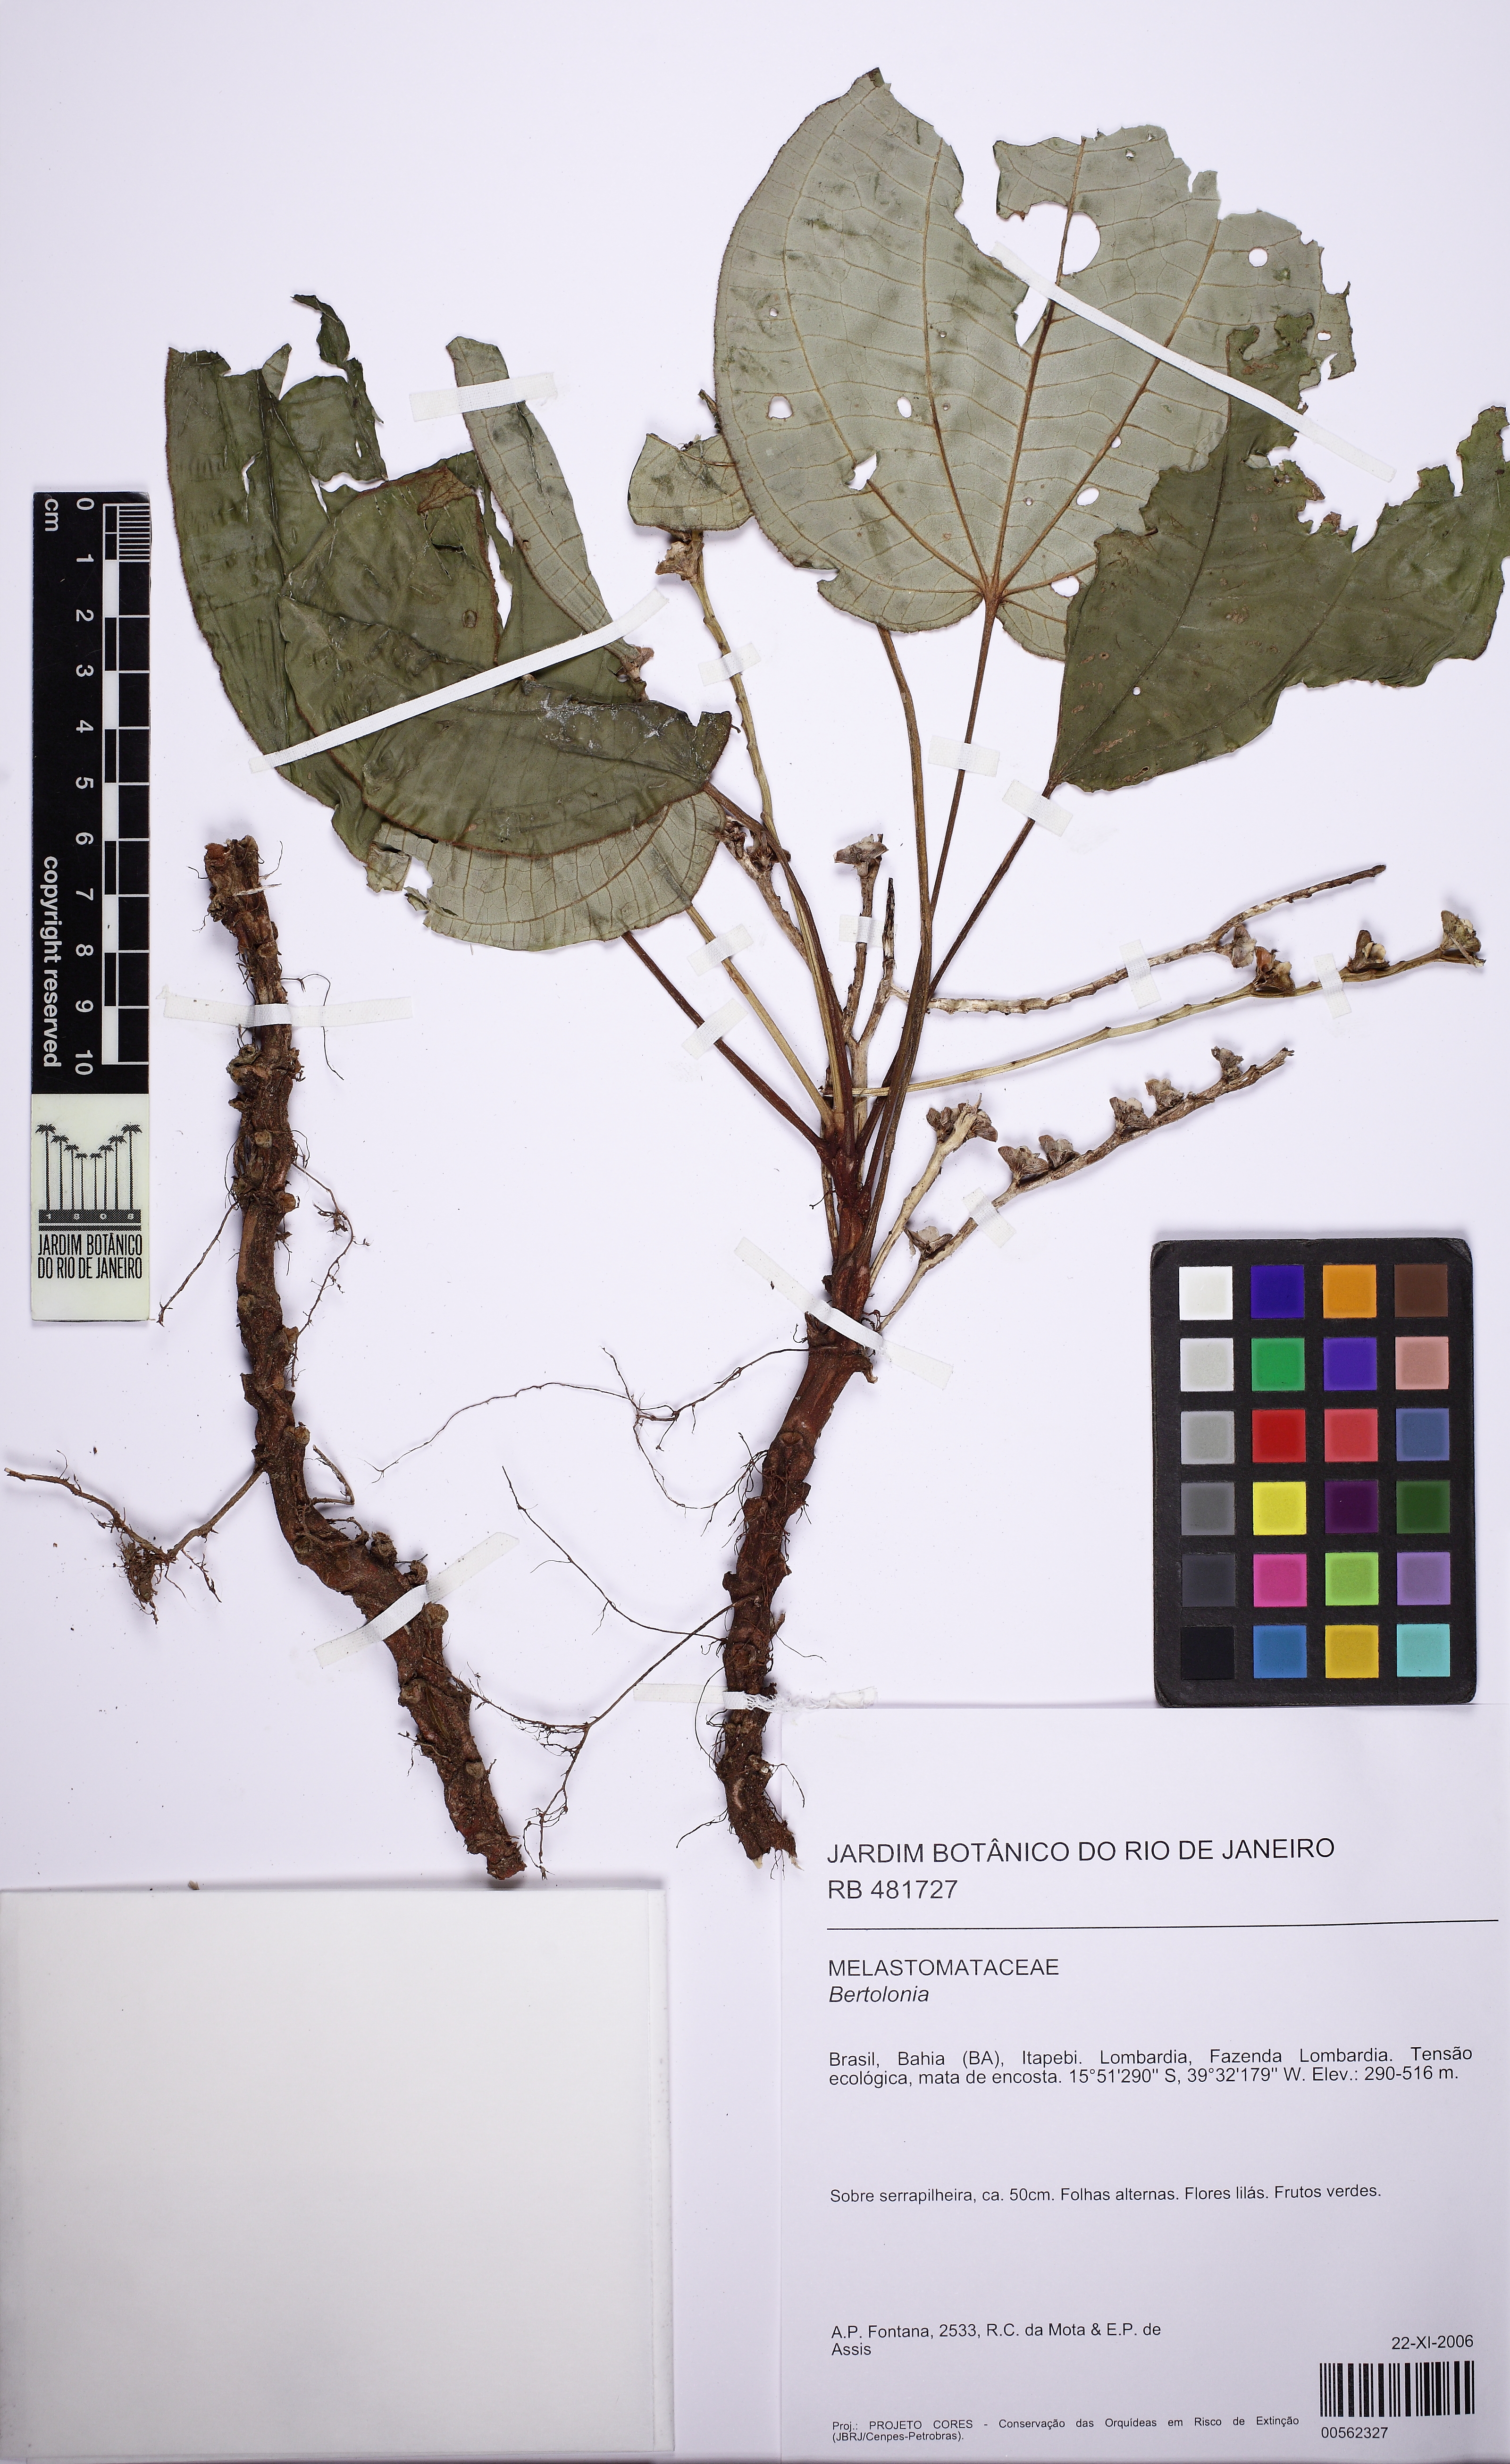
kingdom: Plantae
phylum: Tracheophyta
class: Magnoliopsida
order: Myrtales
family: Melastomataceae
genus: Bertolonia
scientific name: Bertolonia reginatoi
